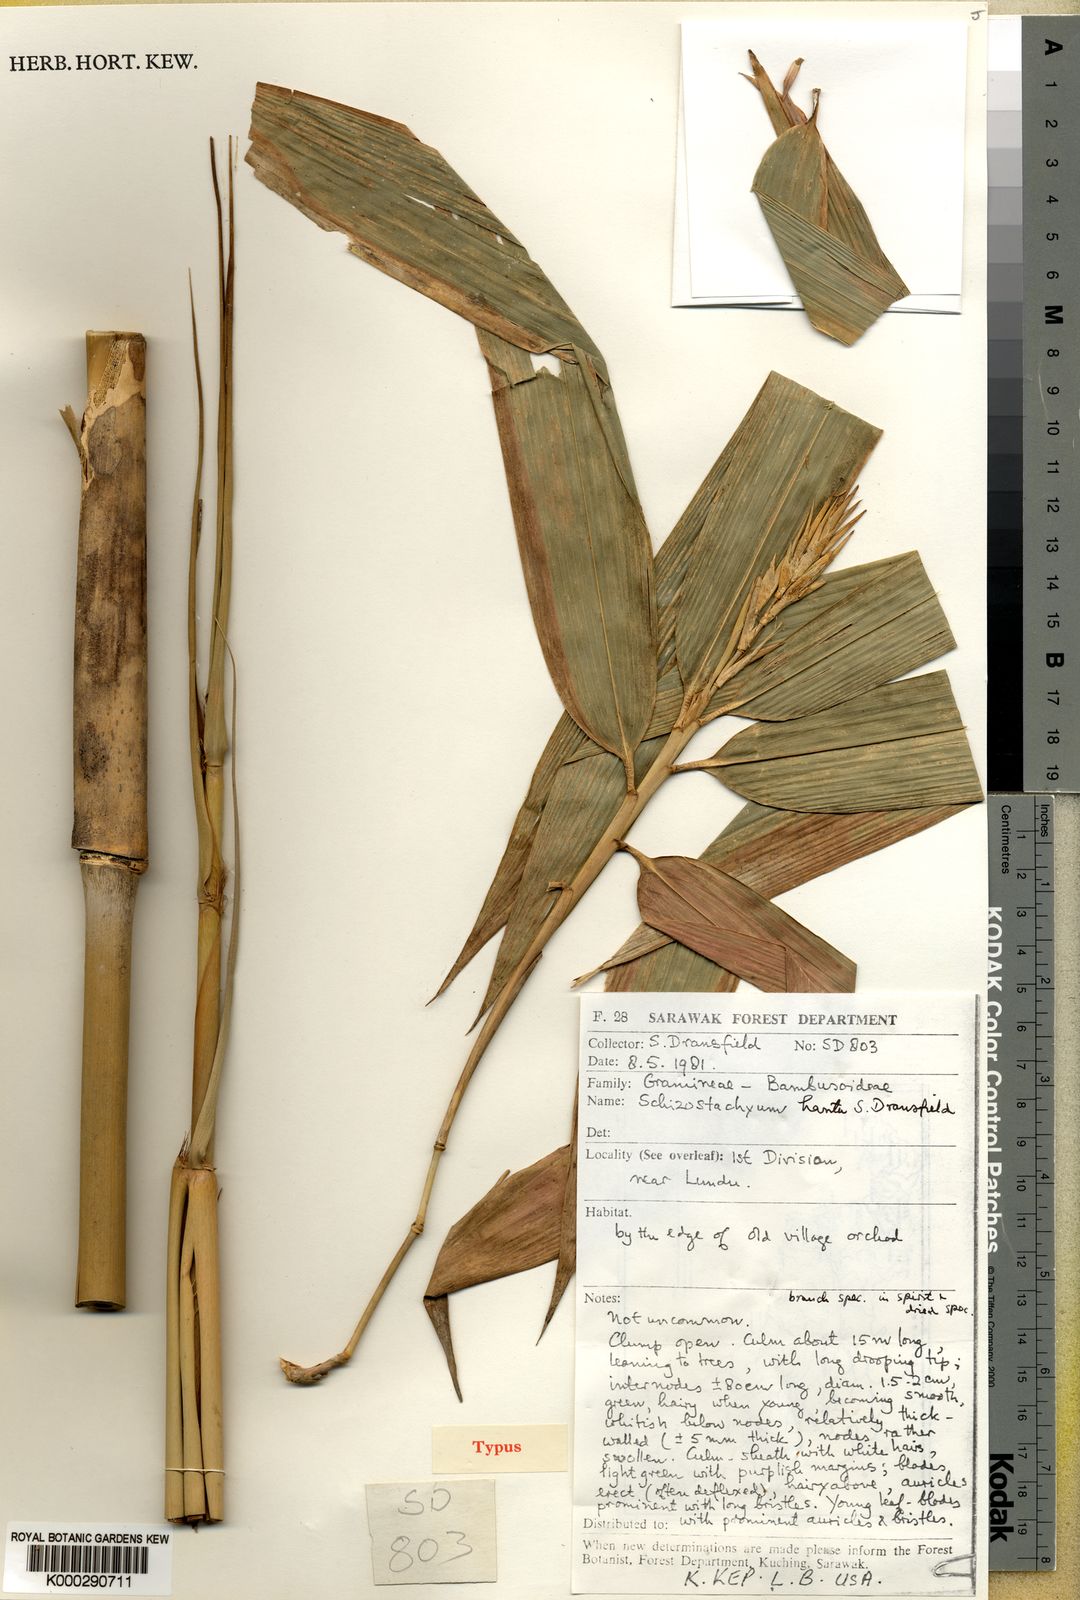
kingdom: Plantae
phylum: Tracheophyta
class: Liliopsida
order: Poales
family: Poaceae
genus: Schizostachyum
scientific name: Schizostachyum hantu
